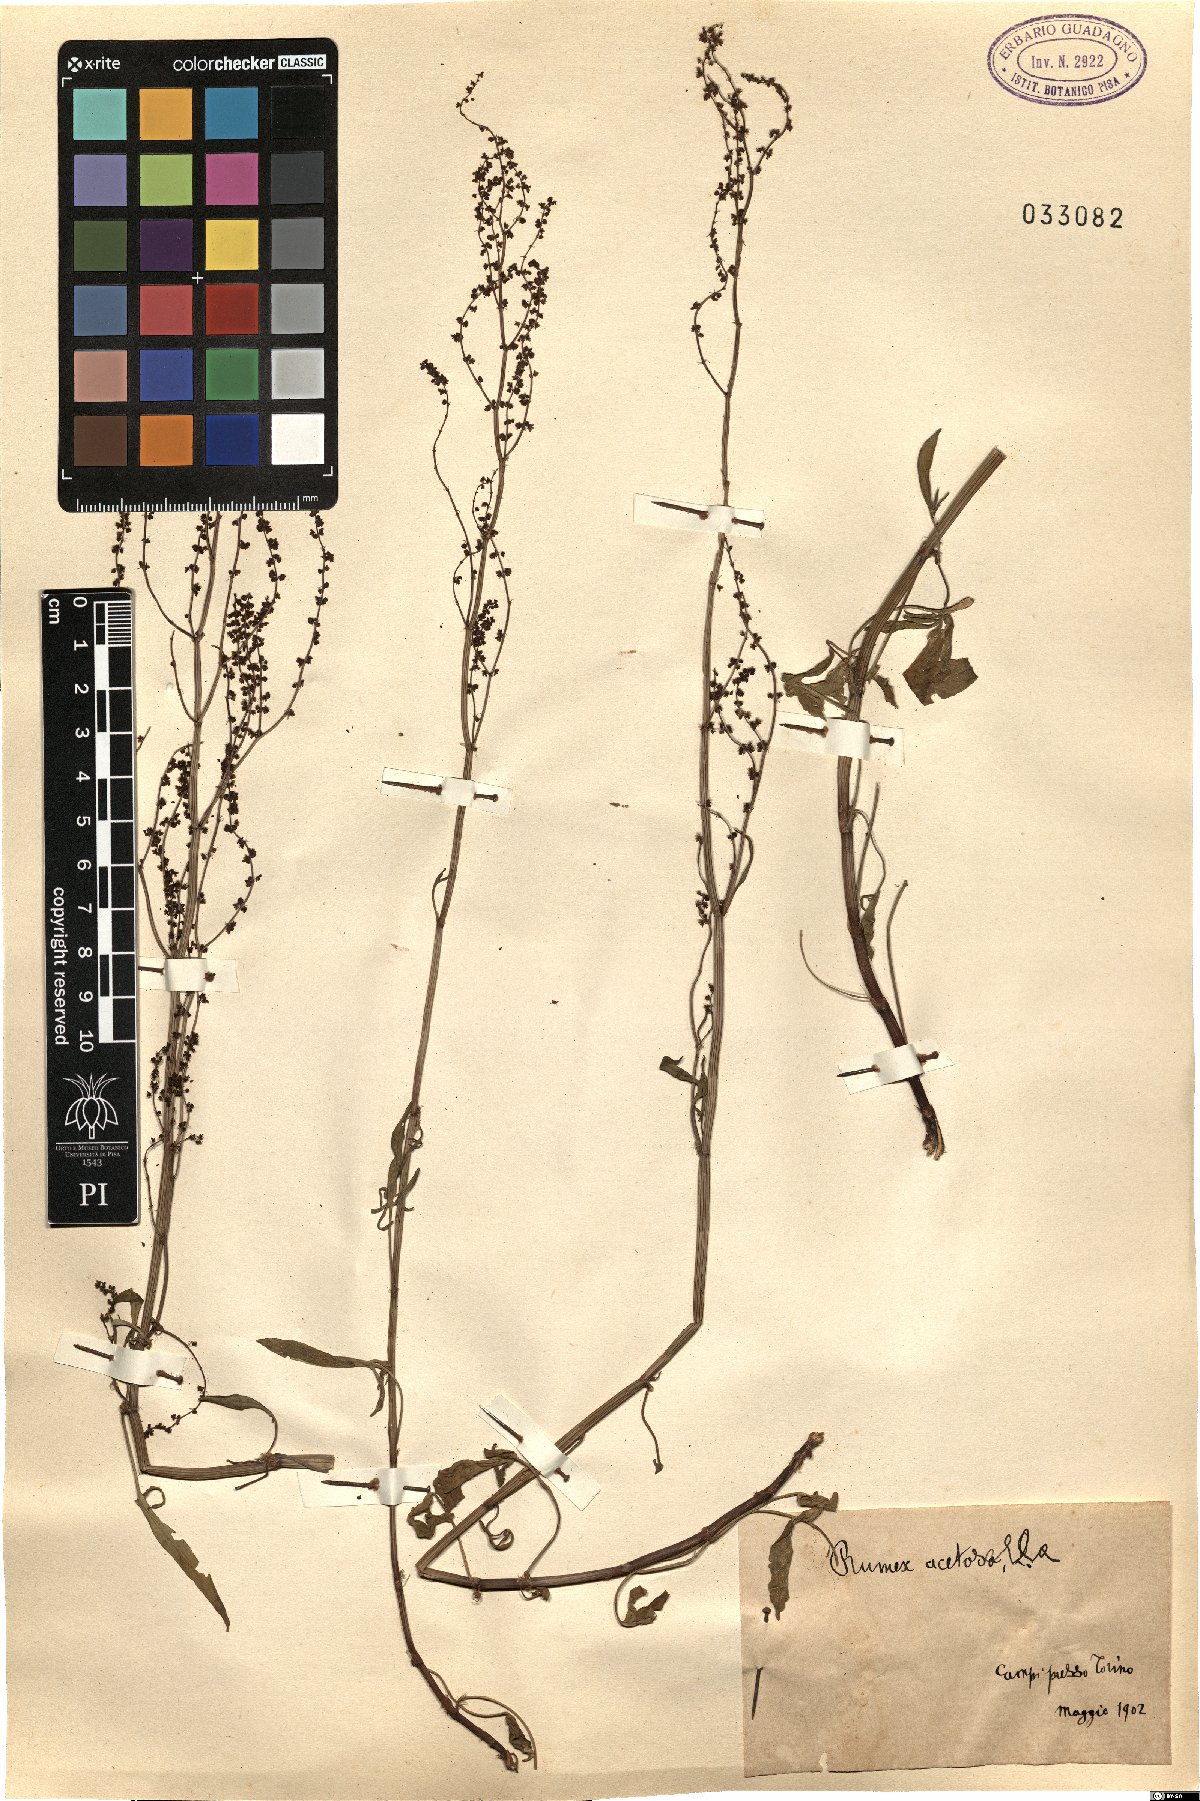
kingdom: Plantae
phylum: Tracheophyta
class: Magnoliopsida
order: Caryophyllales
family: Polygonaceae
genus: Rumex
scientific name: Rumex acetosella
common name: Common sheep sorrel
